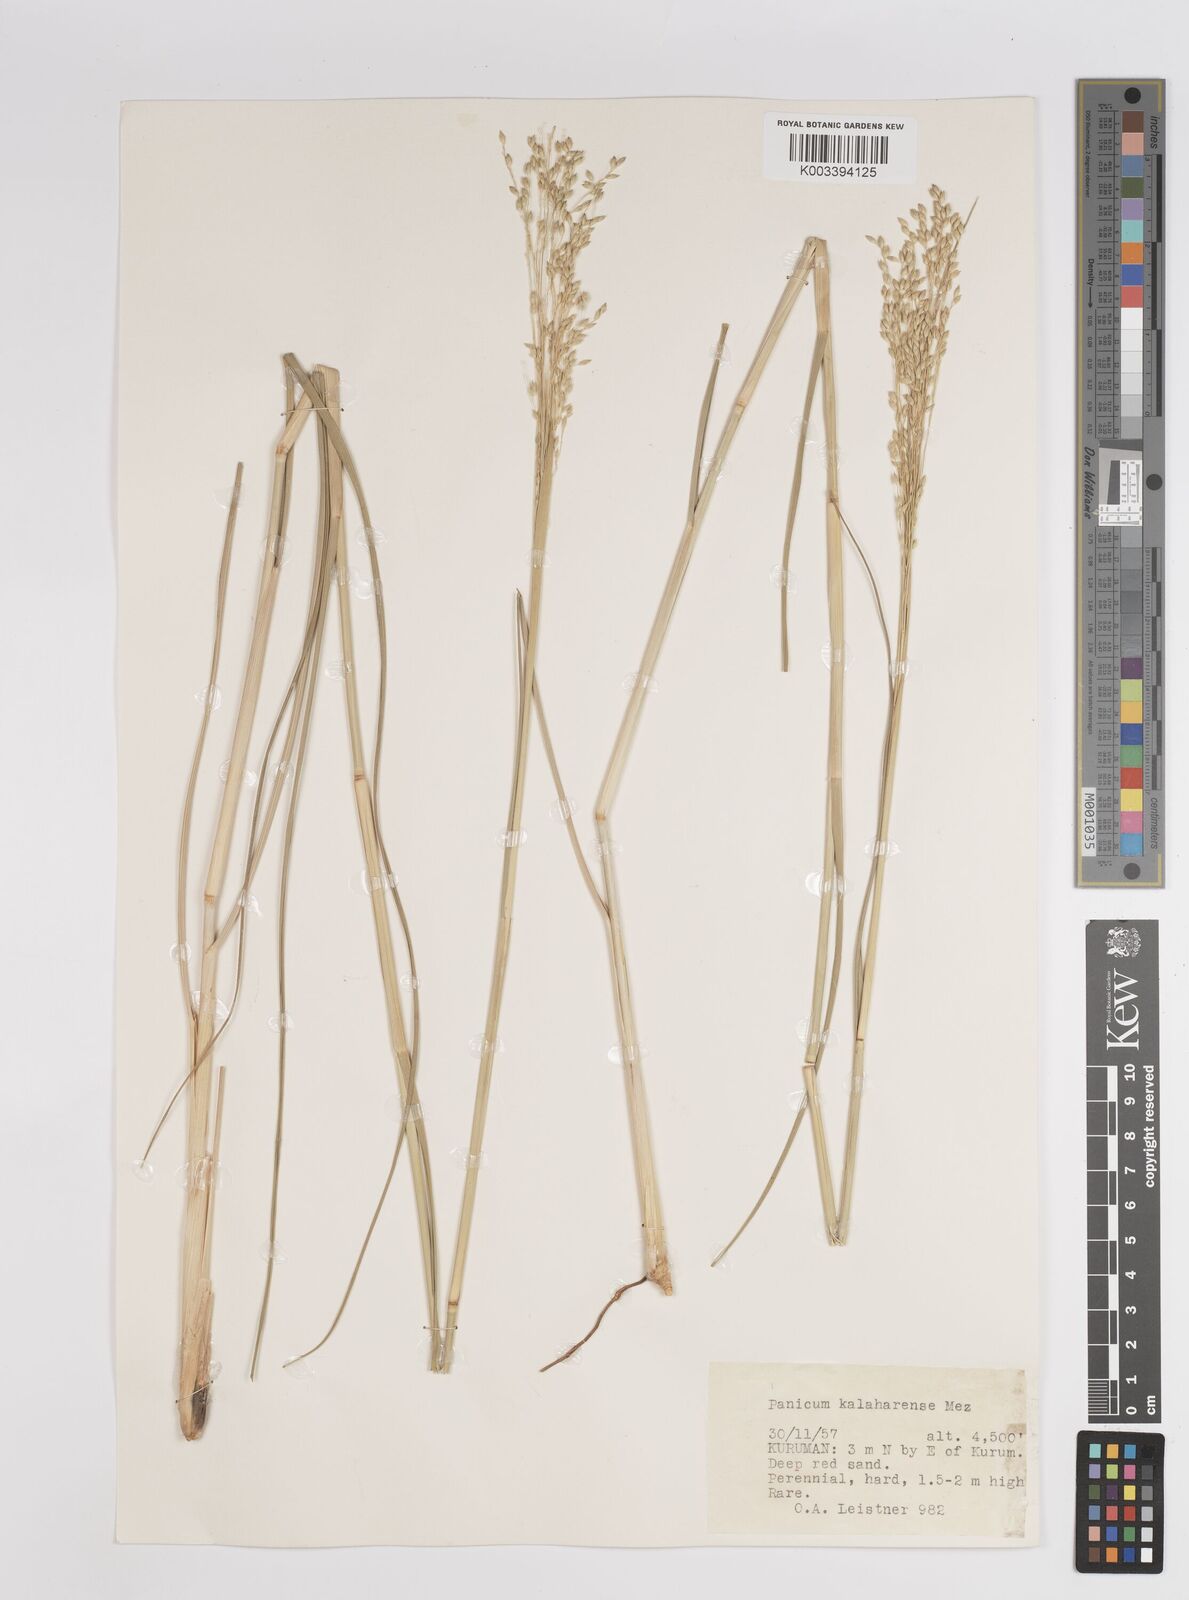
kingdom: Plantae
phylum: Tracheophyta
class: Liliopsida
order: Poales
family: Poaceae
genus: Panicum
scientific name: Panicum kalaharense
